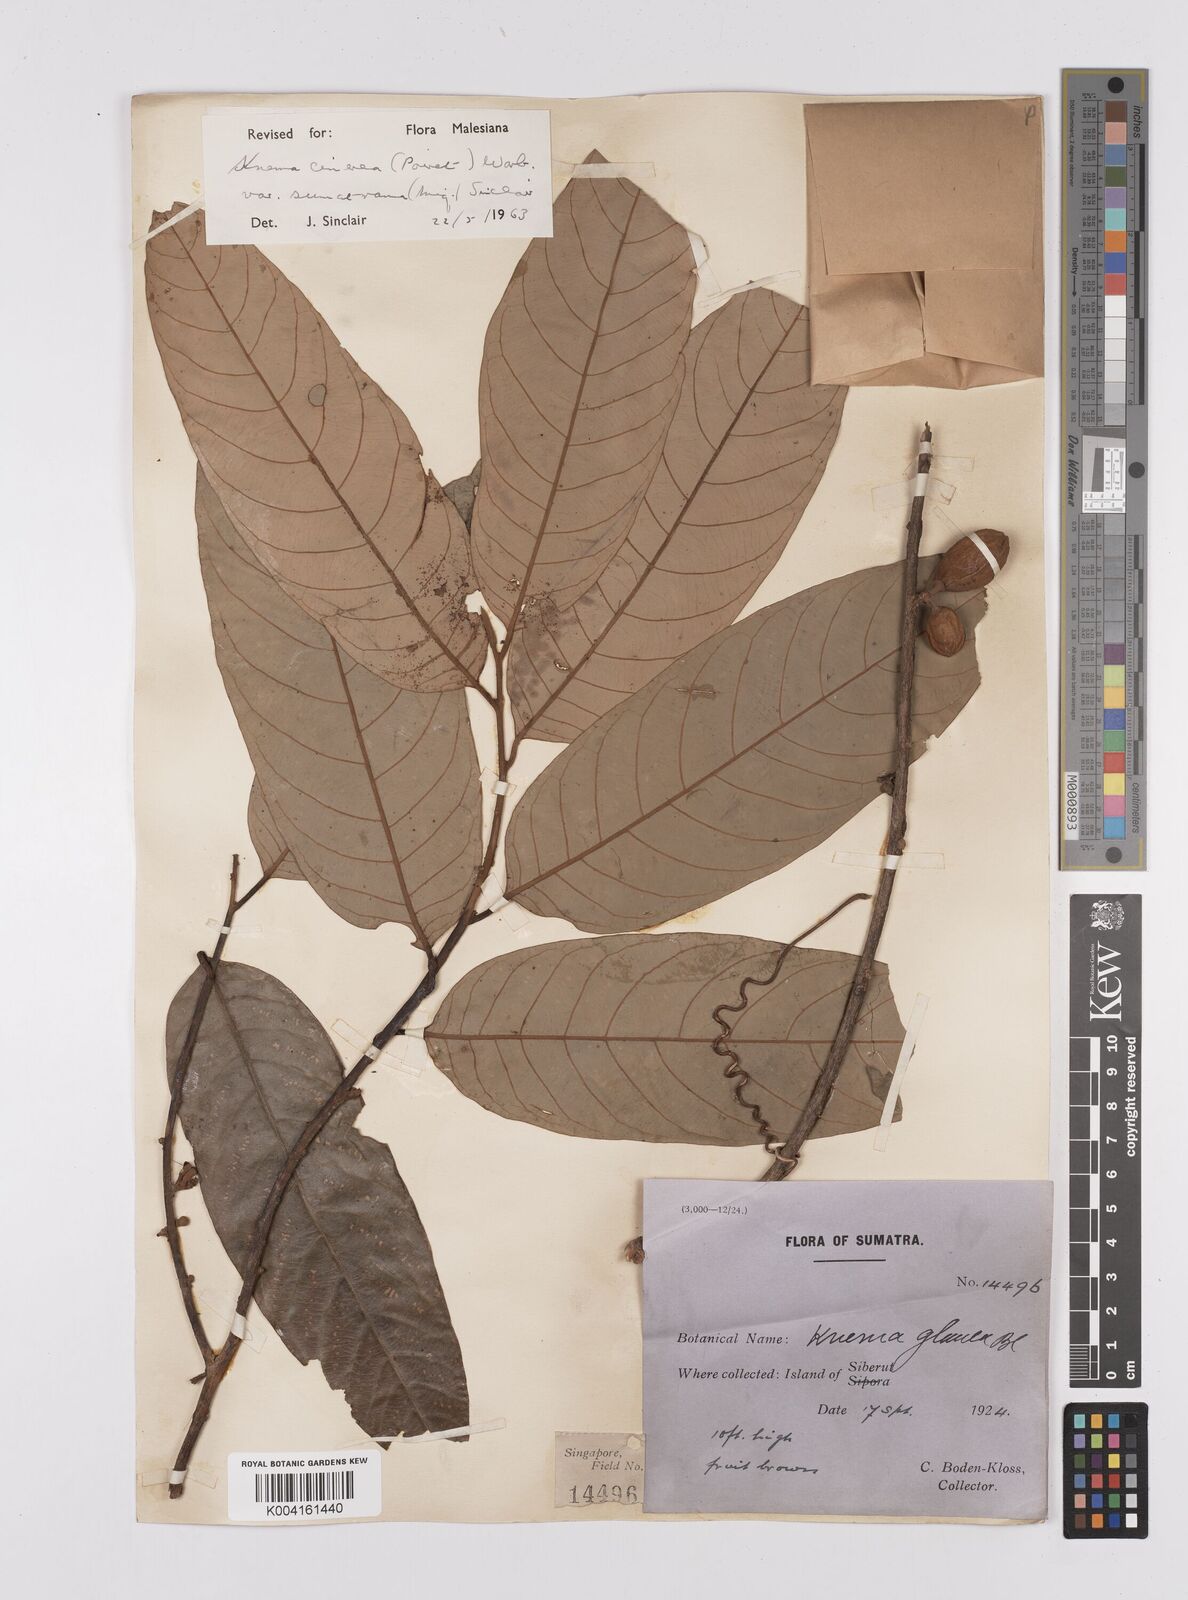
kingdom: Plantae
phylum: Tracheophyta
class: Magnoliopsida
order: Magnoliales
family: Myristicaceae
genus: Knema
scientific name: Knema
